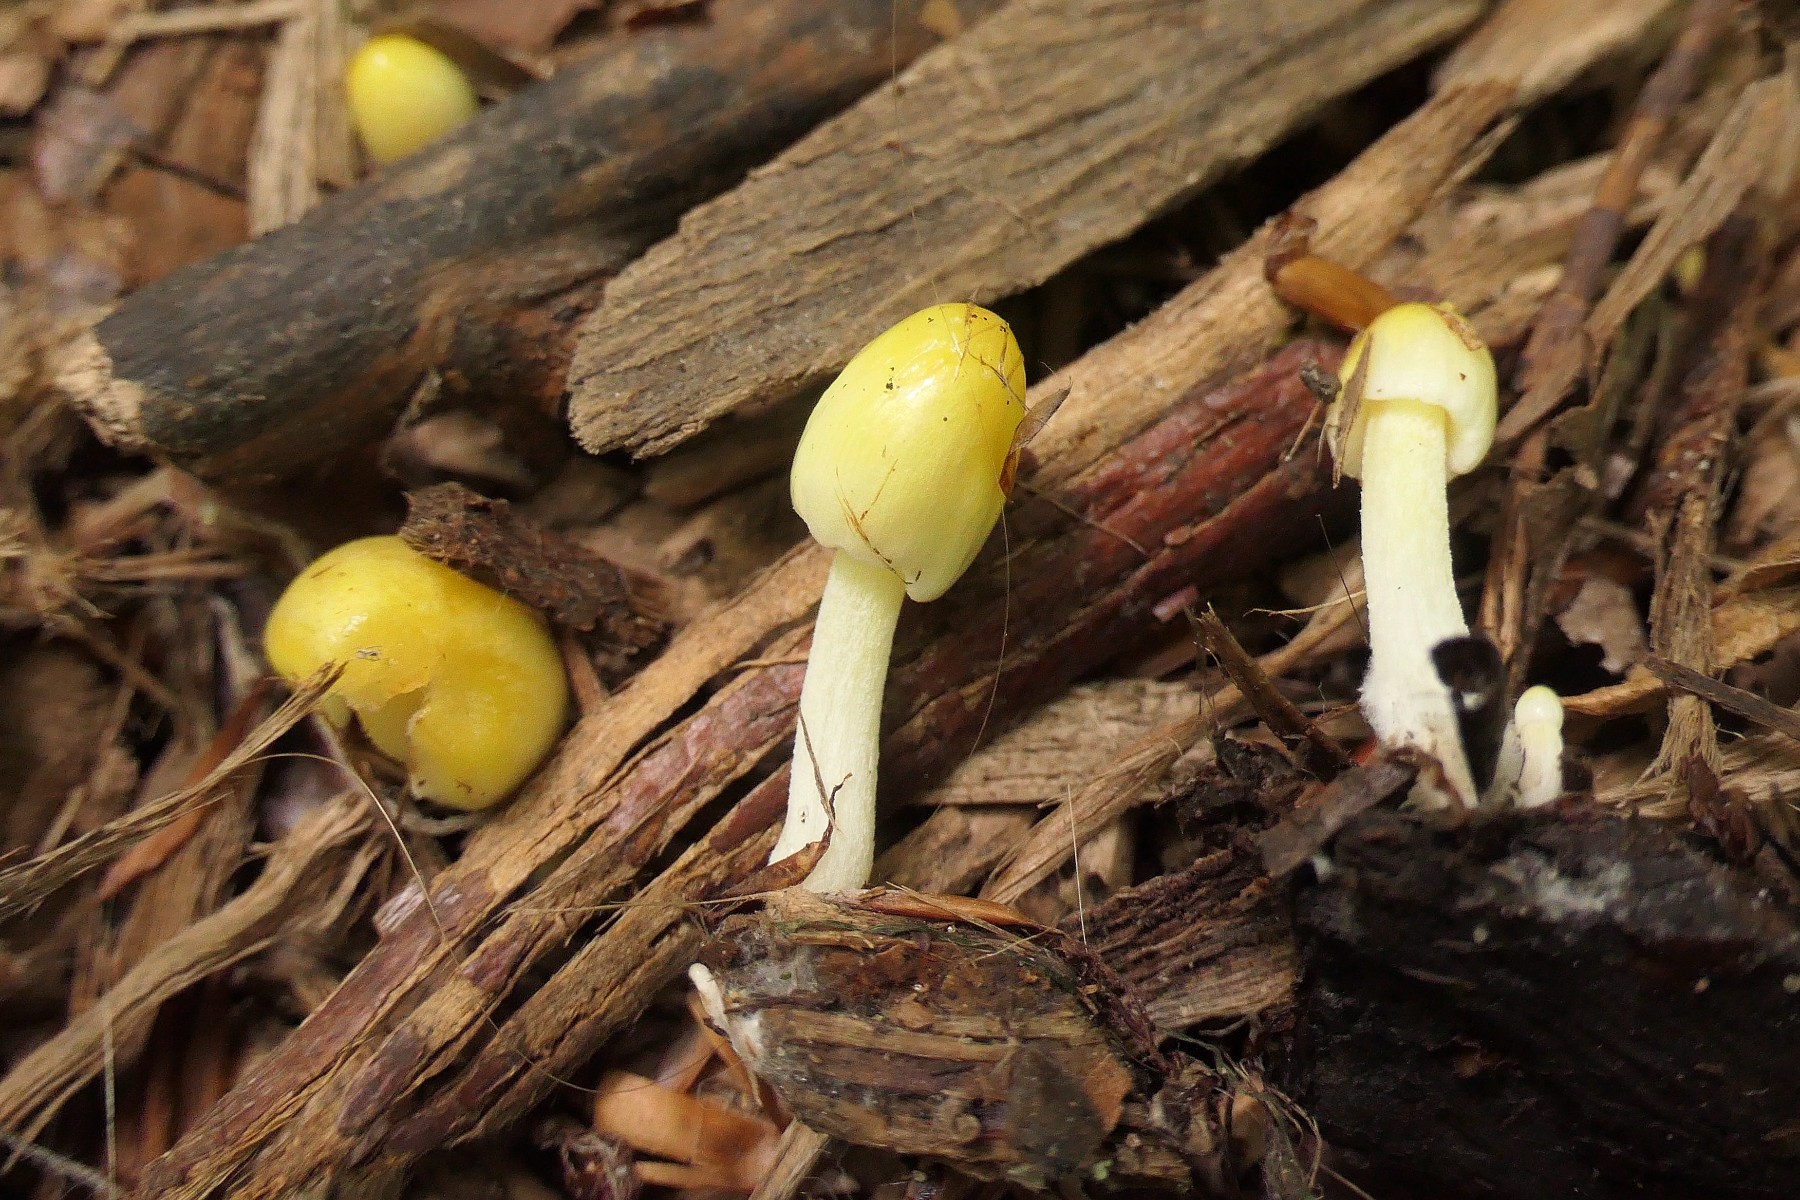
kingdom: Fungi
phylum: Basidiomycota
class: Agaricomycetes
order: Agaricales
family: Bolbitiaceae
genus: Bolbitius
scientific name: Bolbitius titubans
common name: almindelig gulhat
